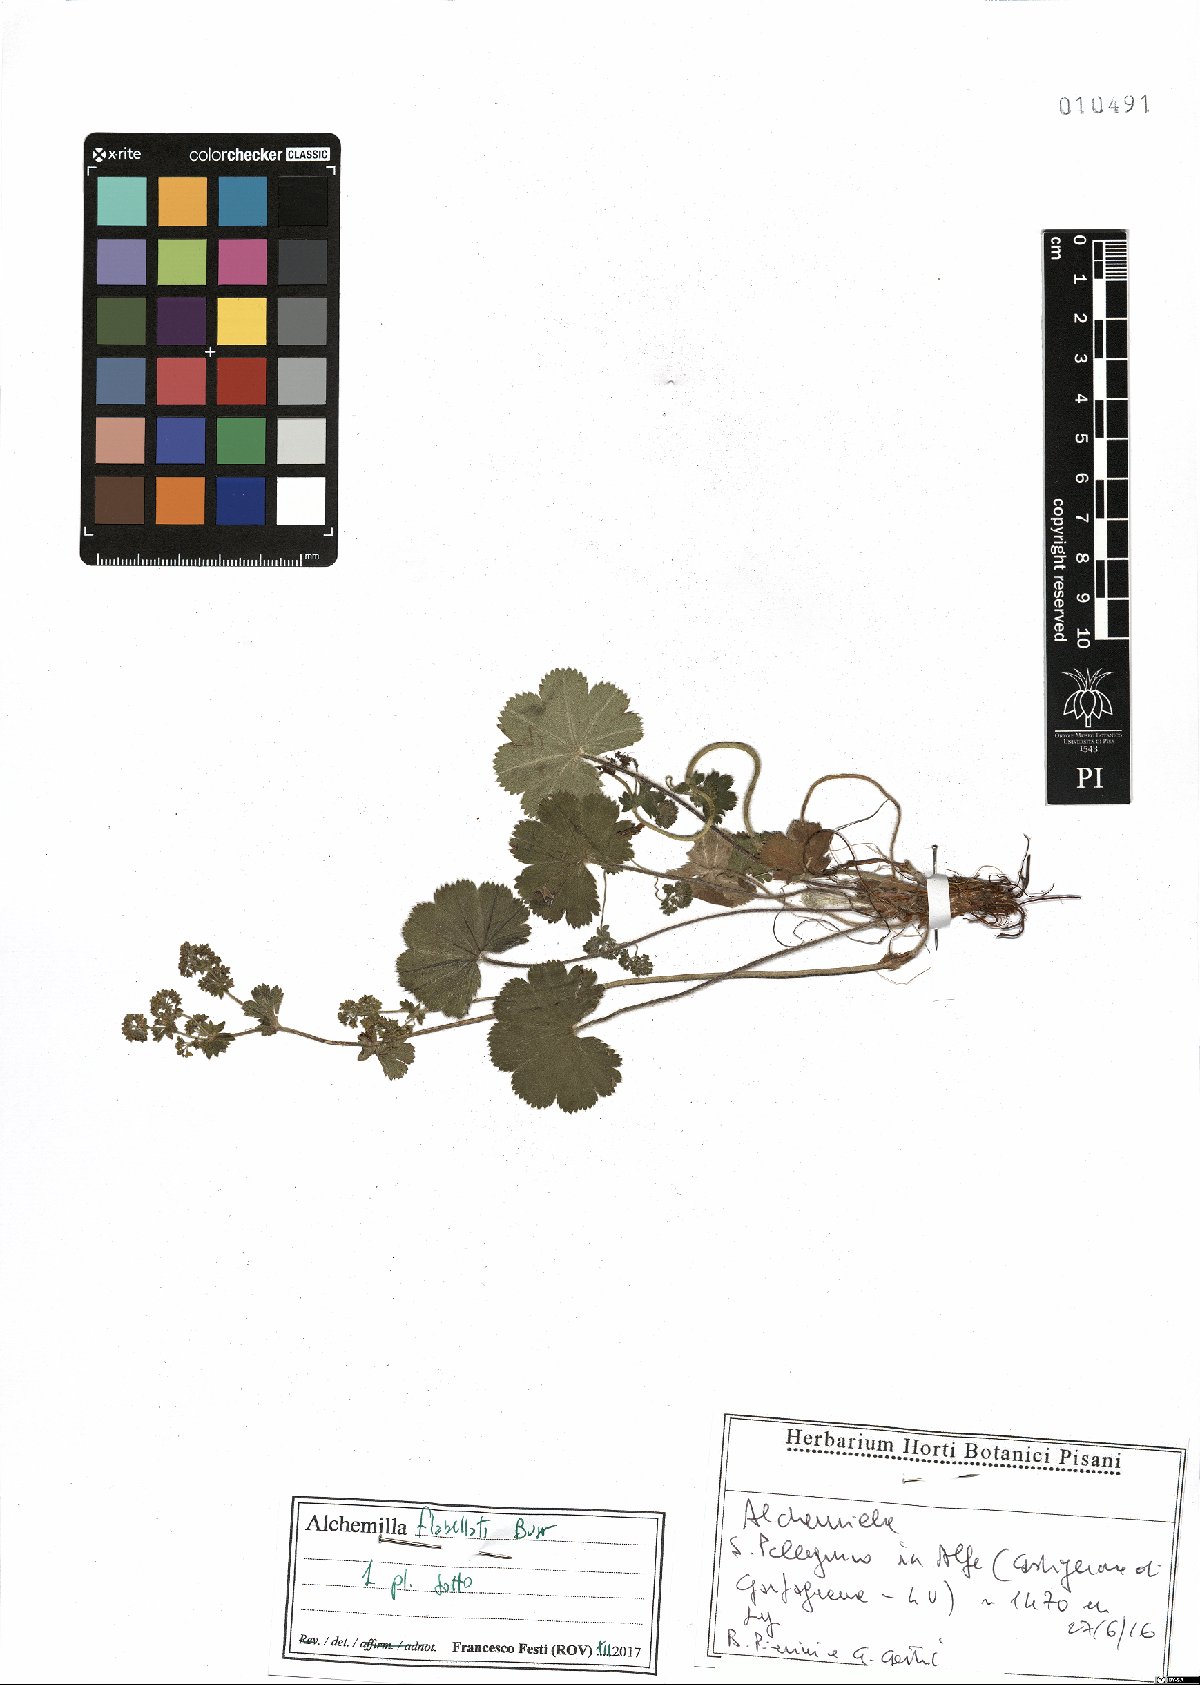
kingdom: Plantae
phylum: Tracheophyta
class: Magnoliopsida
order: Rosales
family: Rosaceae
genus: Alchemilla
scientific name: Alchemilla flabellata
